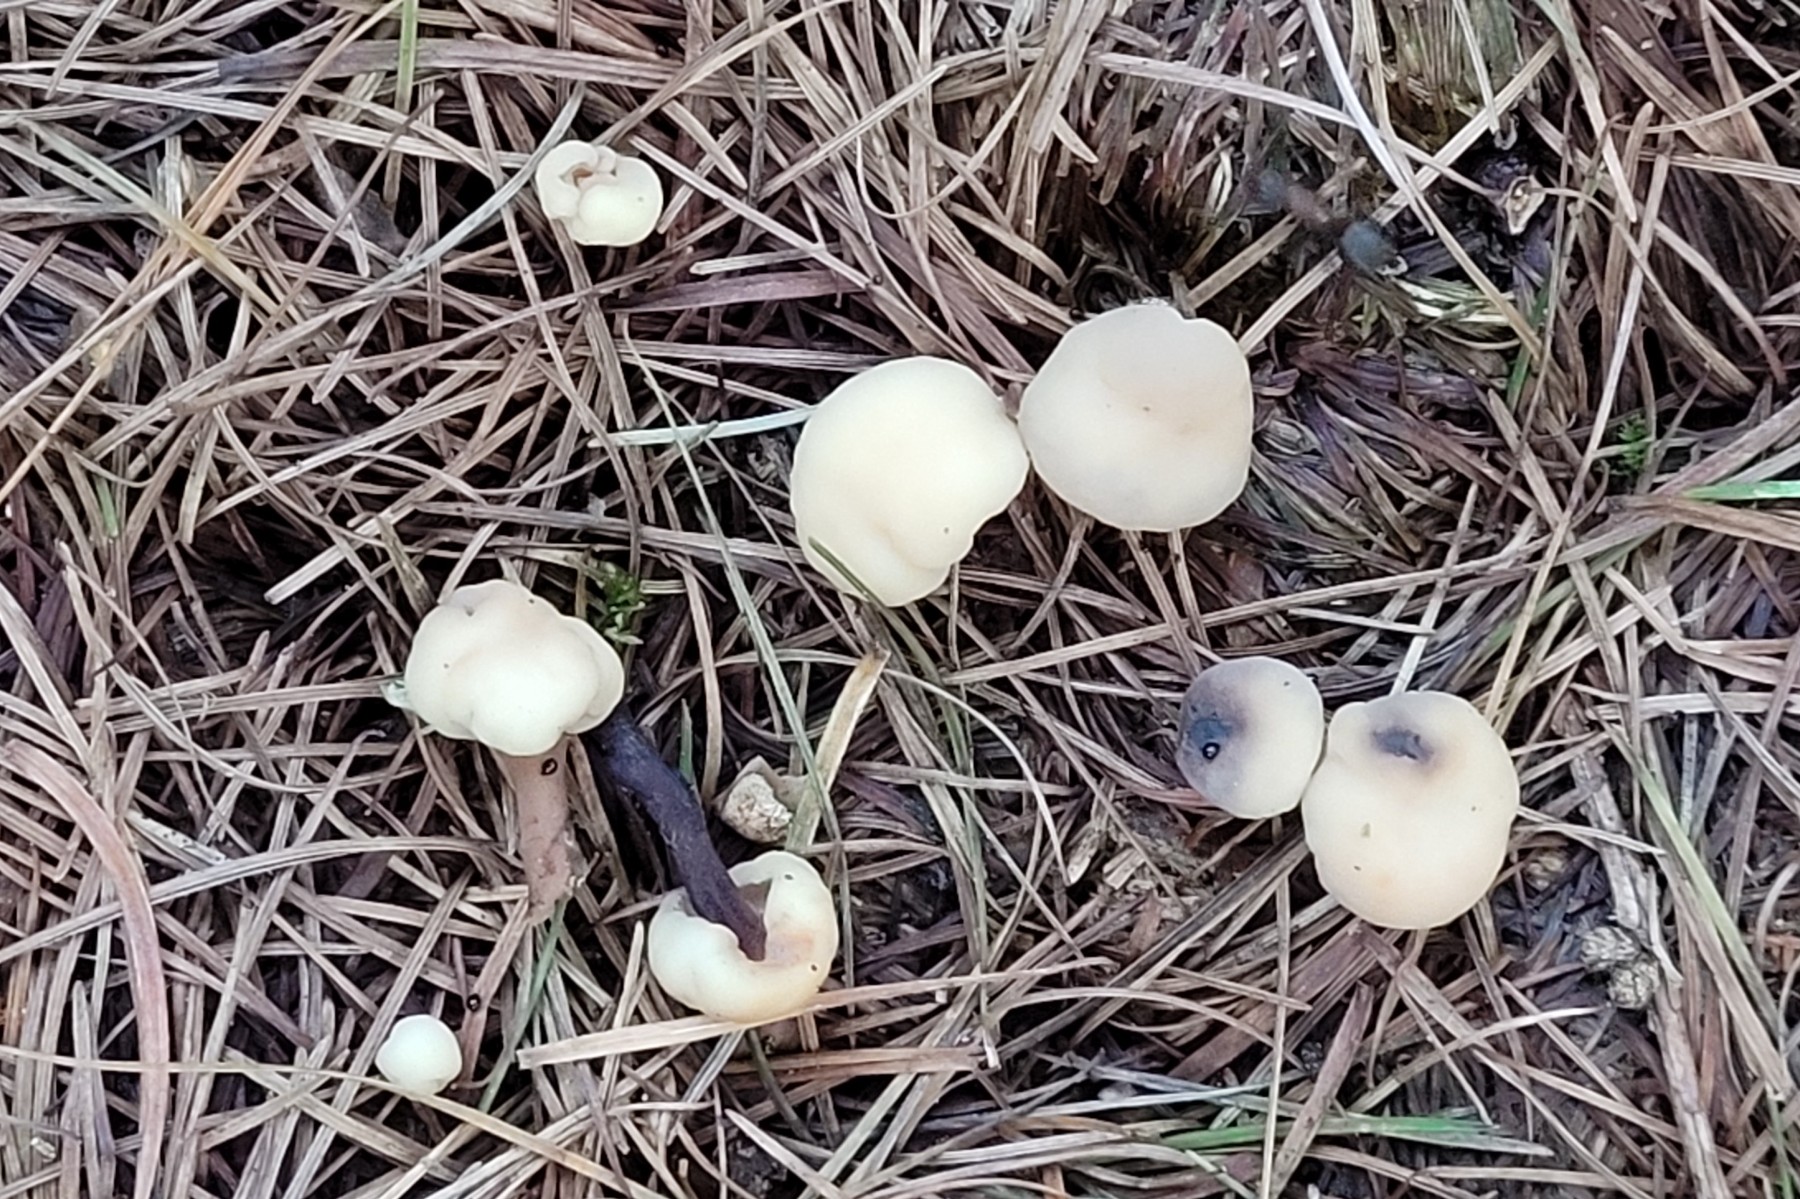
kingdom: Fungi
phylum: Ascomycota
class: Leotiomycetes
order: Rhytismatales
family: Cudoniaceae
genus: Cudonia
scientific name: Cudonia circinans
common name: hekserings-hjelmmorkel
